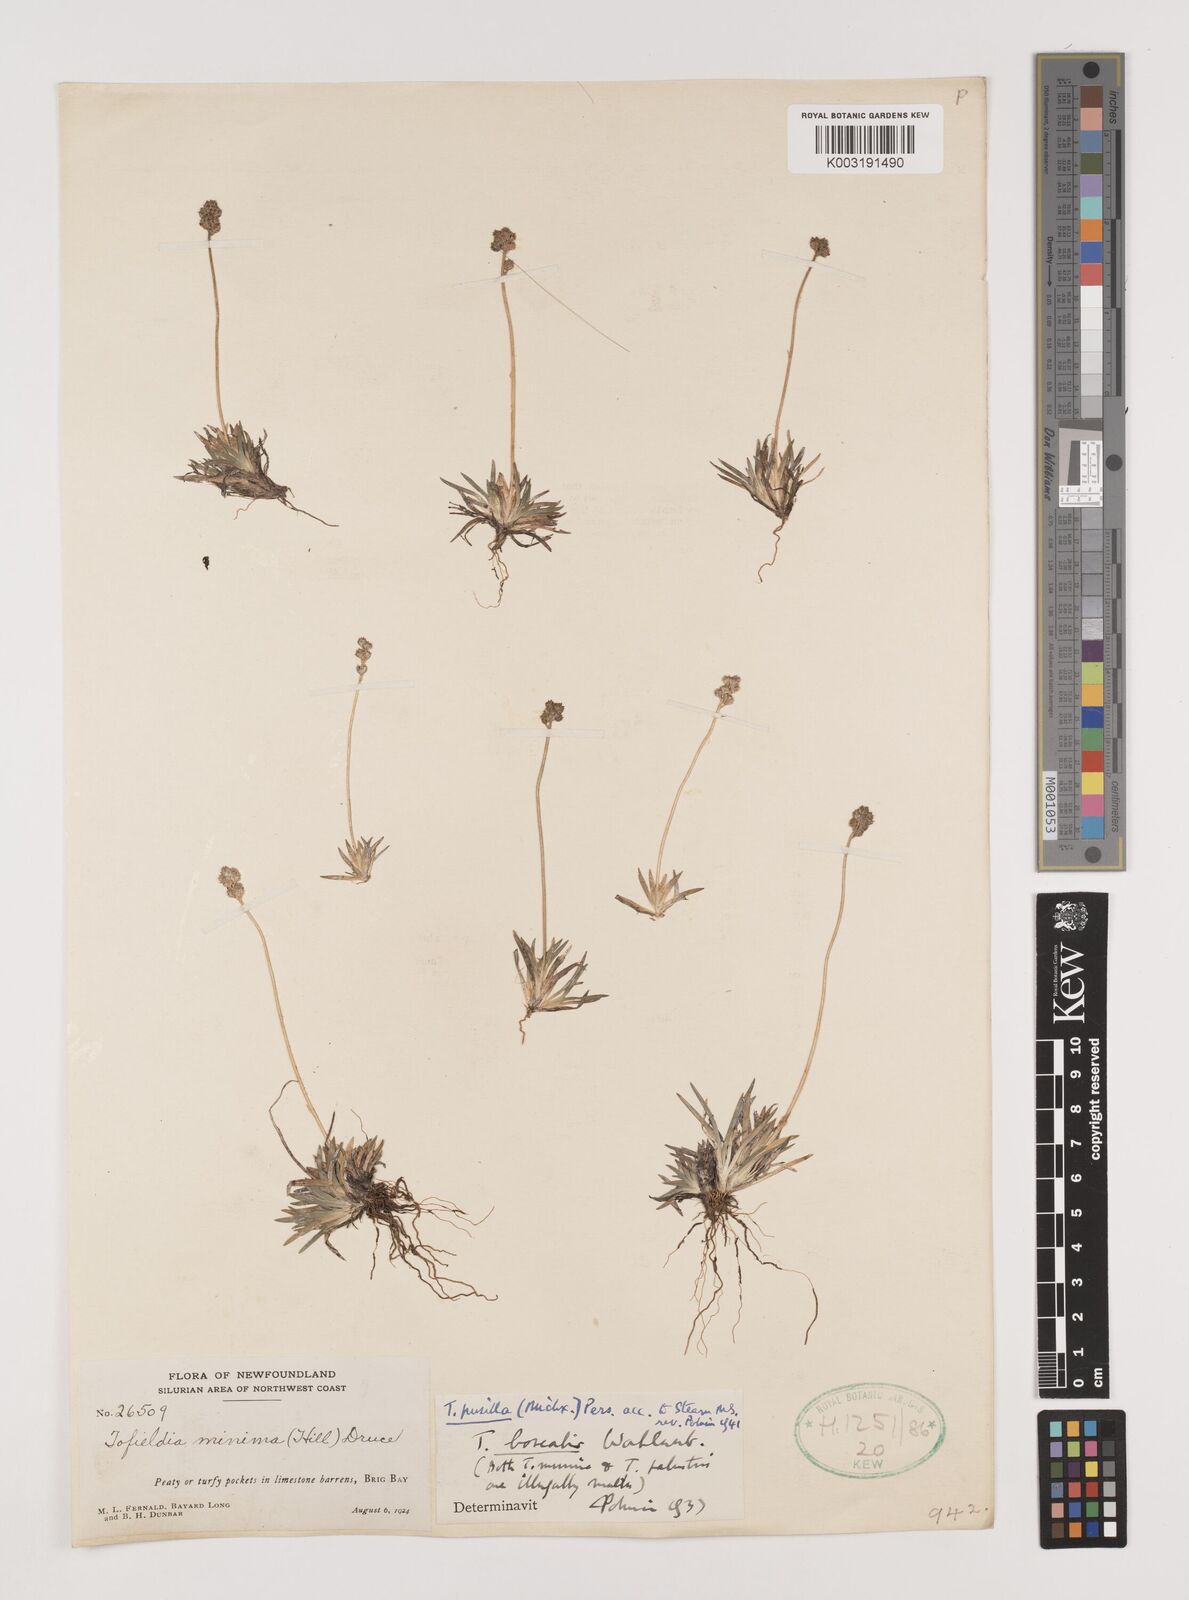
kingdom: Plantae
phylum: Tracheophyta
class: Liliopsida
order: Alismatales
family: Tofieldiaceae
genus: Tofieldia
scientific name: Tofieldia pusilla
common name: Scottish false asphodel
